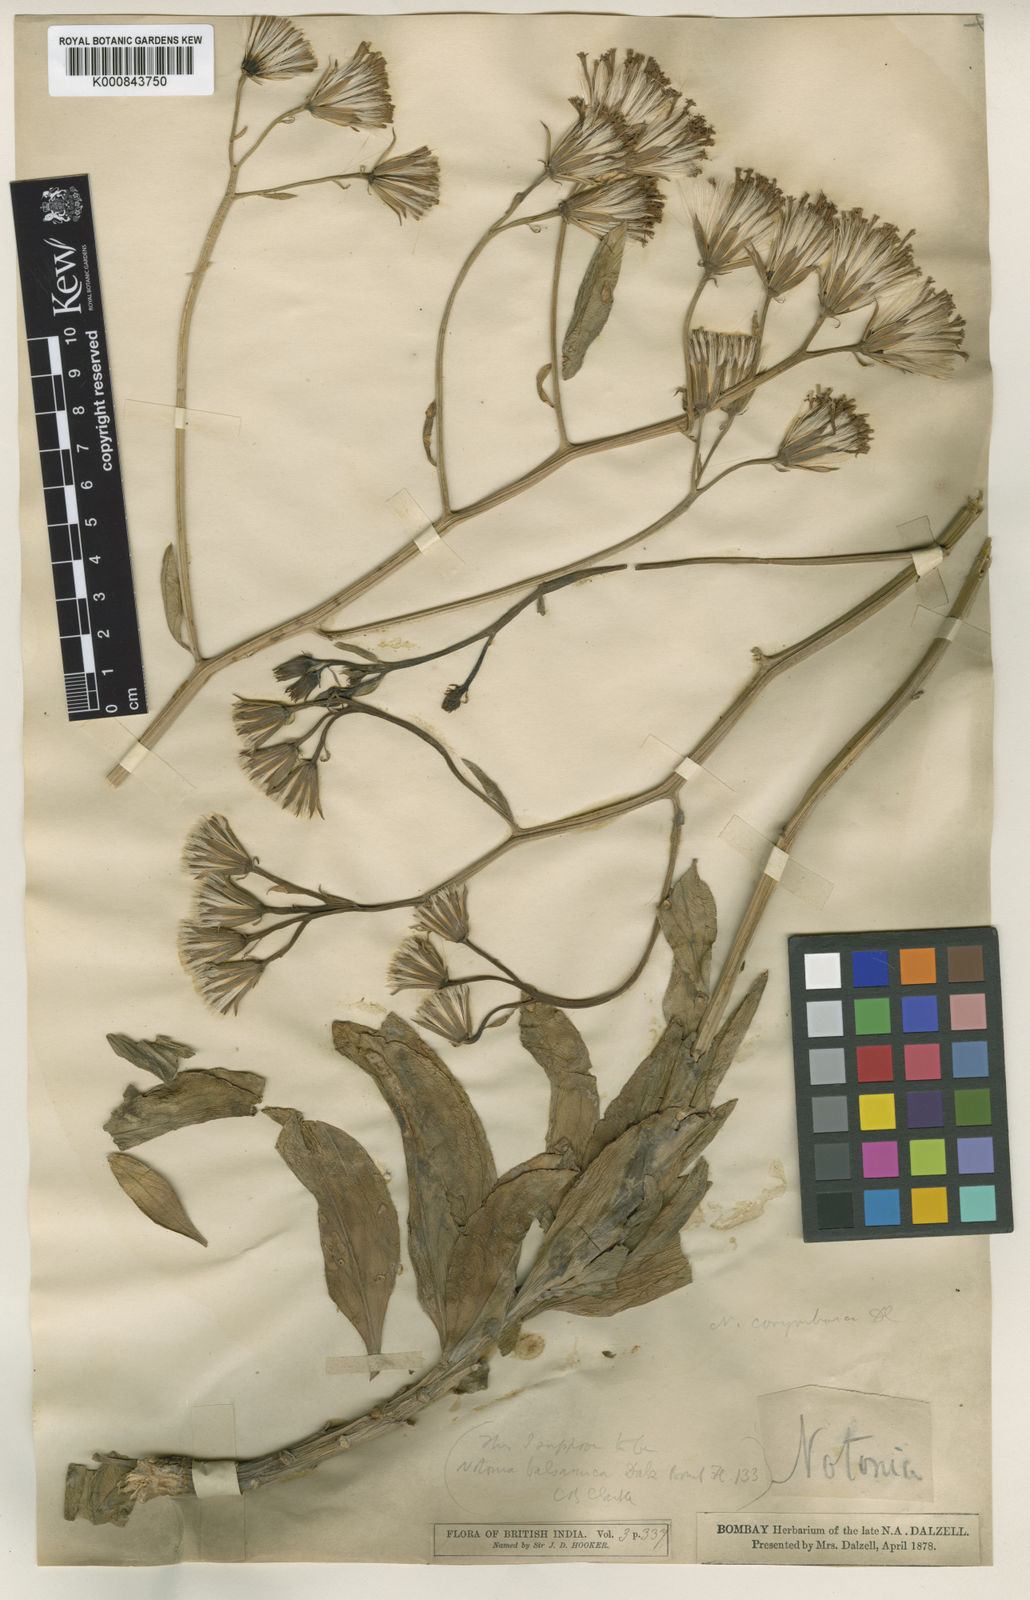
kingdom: Plantae
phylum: Tracheophyta
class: Magnoliopsida
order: Asterales
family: Asteraceae
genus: Kleinia
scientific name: Kleinia
